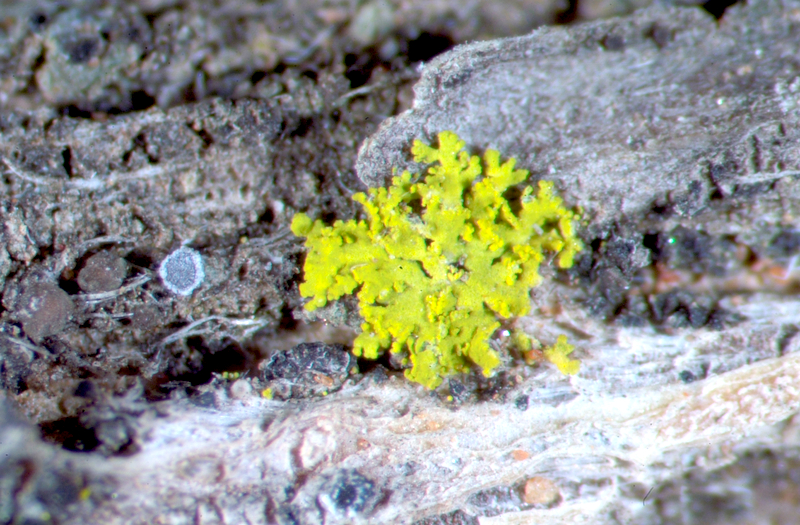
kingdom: Fungi
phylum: Ascomycota
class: Candelariomycetes
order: Candelariales
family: Candelariaceae
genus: Candelaria
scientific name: Candelaria concolor
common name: Candleflame lichen
